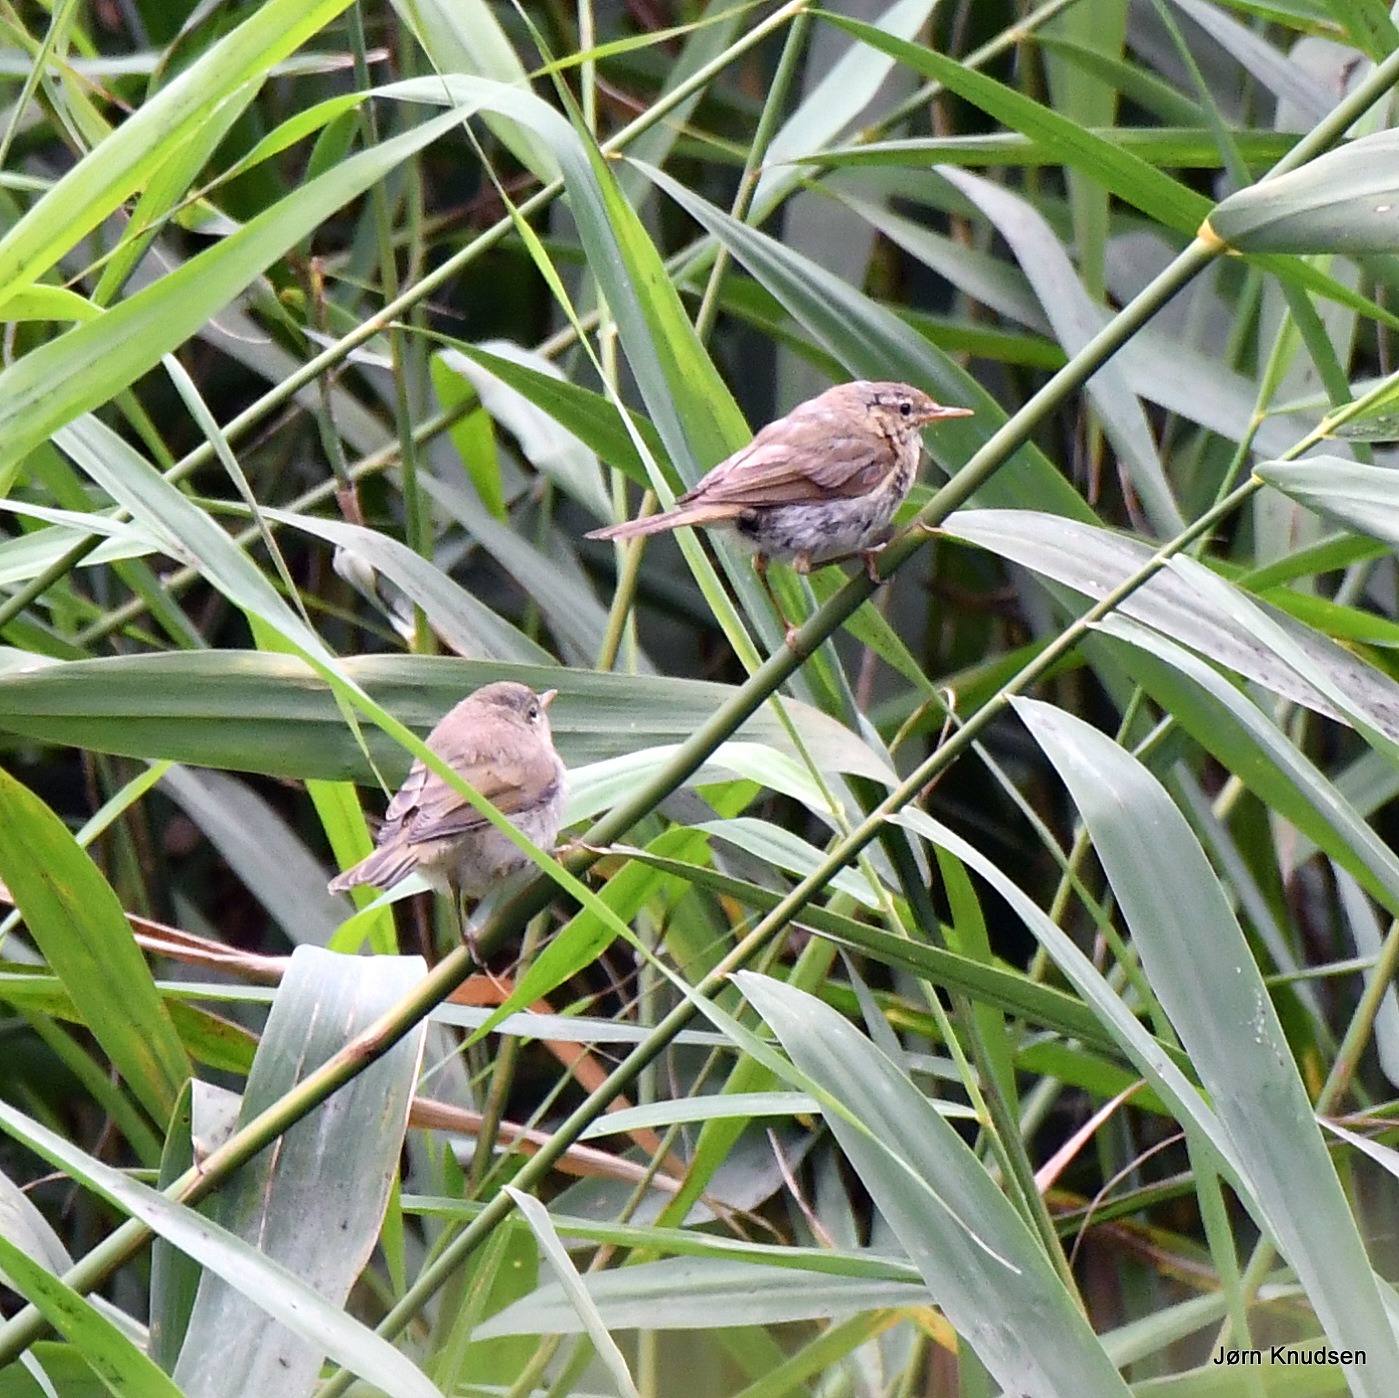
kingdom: Animalia
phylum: Chordata
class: Aves
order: Passeriformes
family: Phylloscopidae
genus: Phylloscopus
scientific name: Phylloscopus collybita
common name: Gransanger
